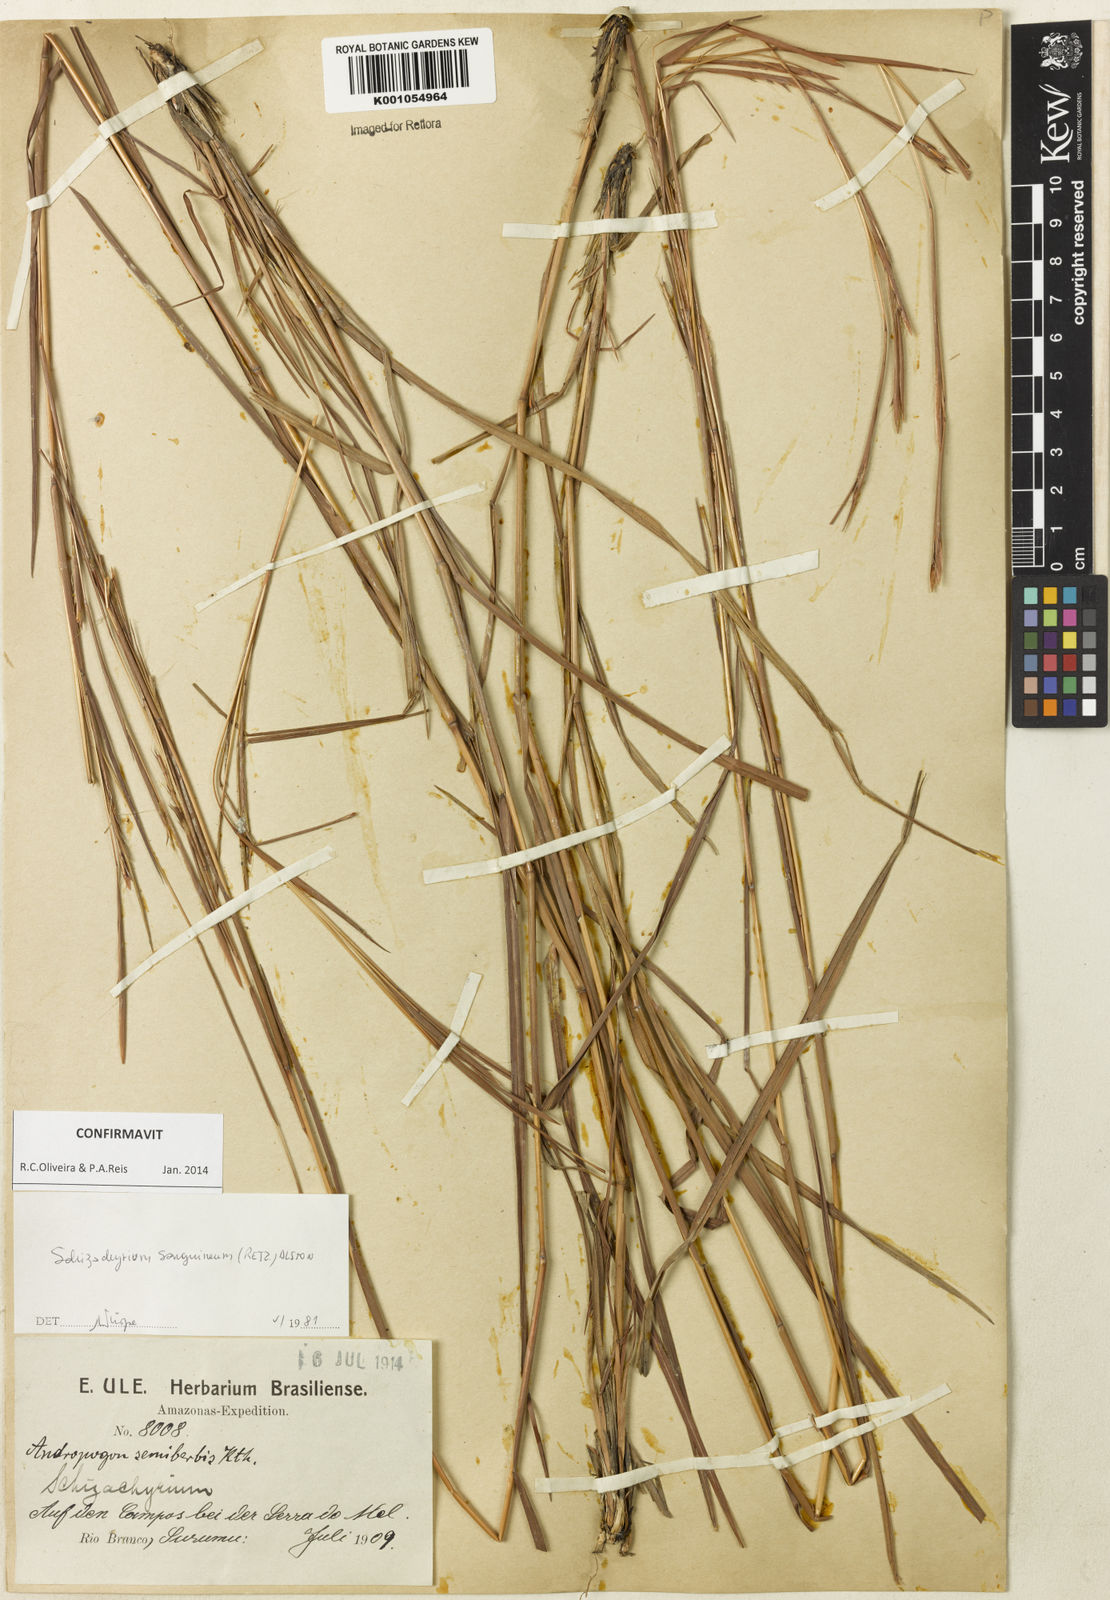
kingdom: Plantae
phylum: Tracheophyta
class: Liliopsida
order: Poales
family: Poaceae
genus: Schizachyrium
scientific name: Schizachyrium sanguineum
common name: Crimson bluestem
